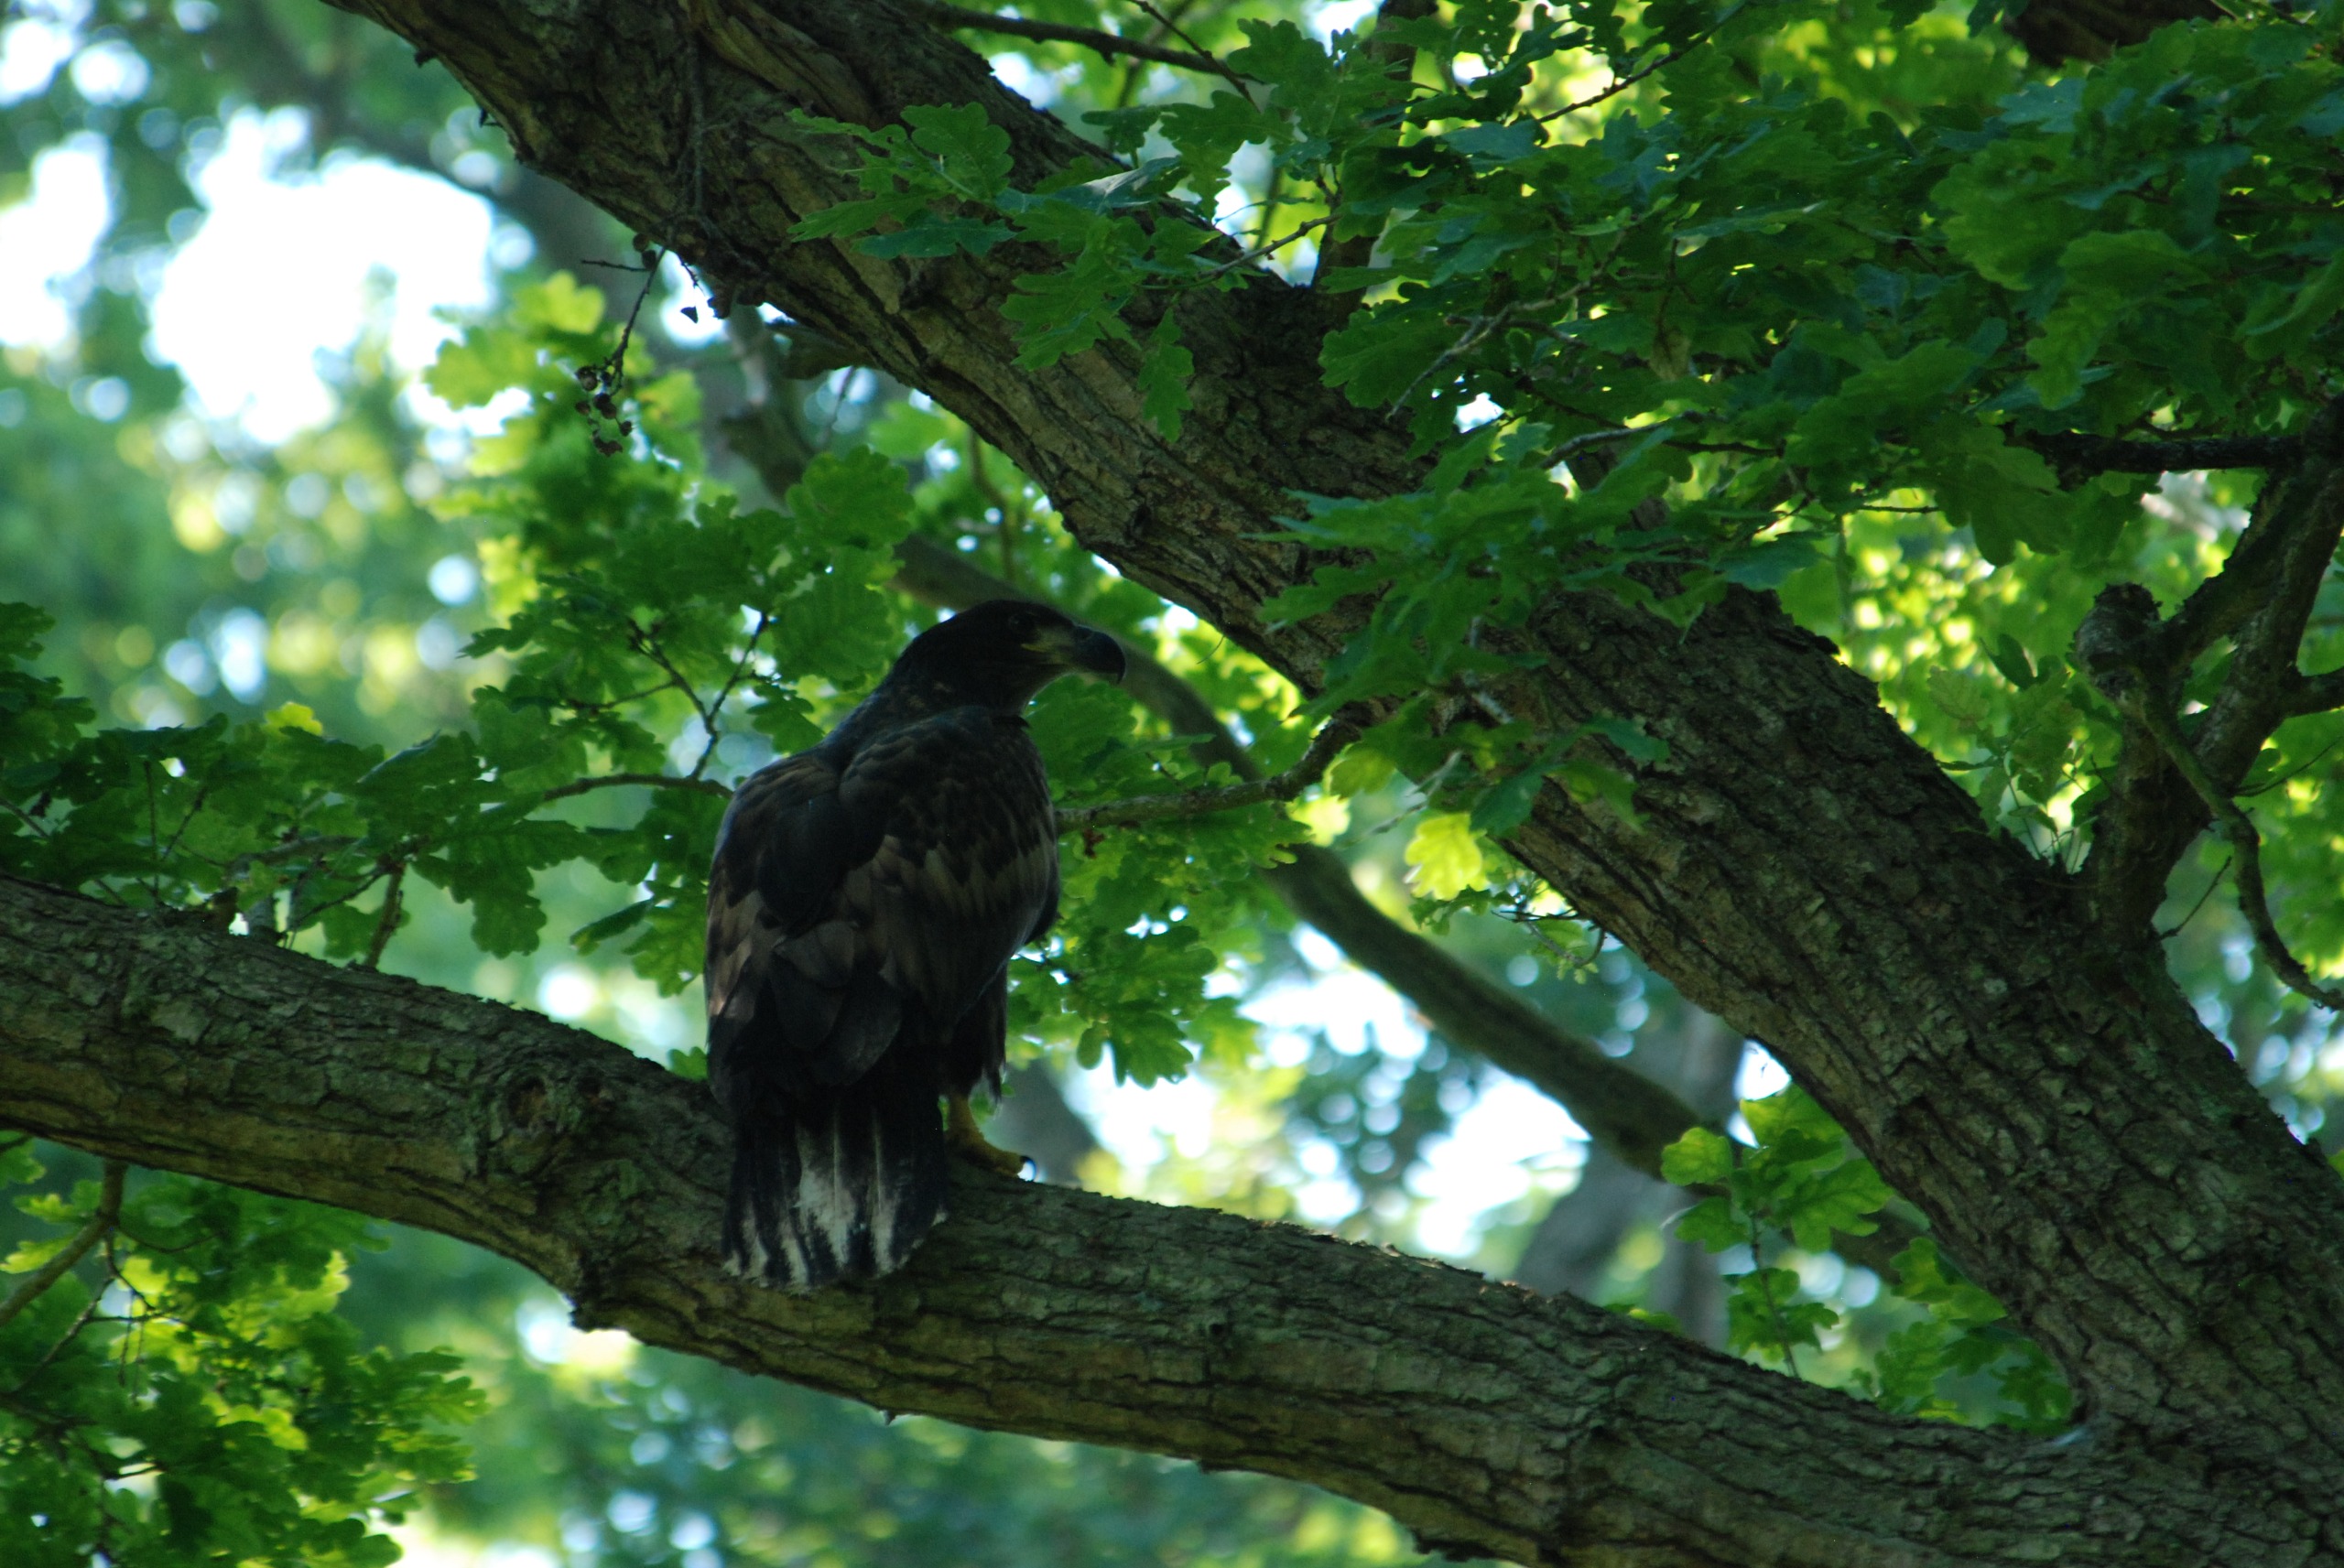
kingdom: Animalia
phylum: Chordata
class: Aves
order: Accipitriformes
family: Accipitridae
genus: Haliaeetus
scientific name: Haliaeetus albicilla
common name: Havørn
